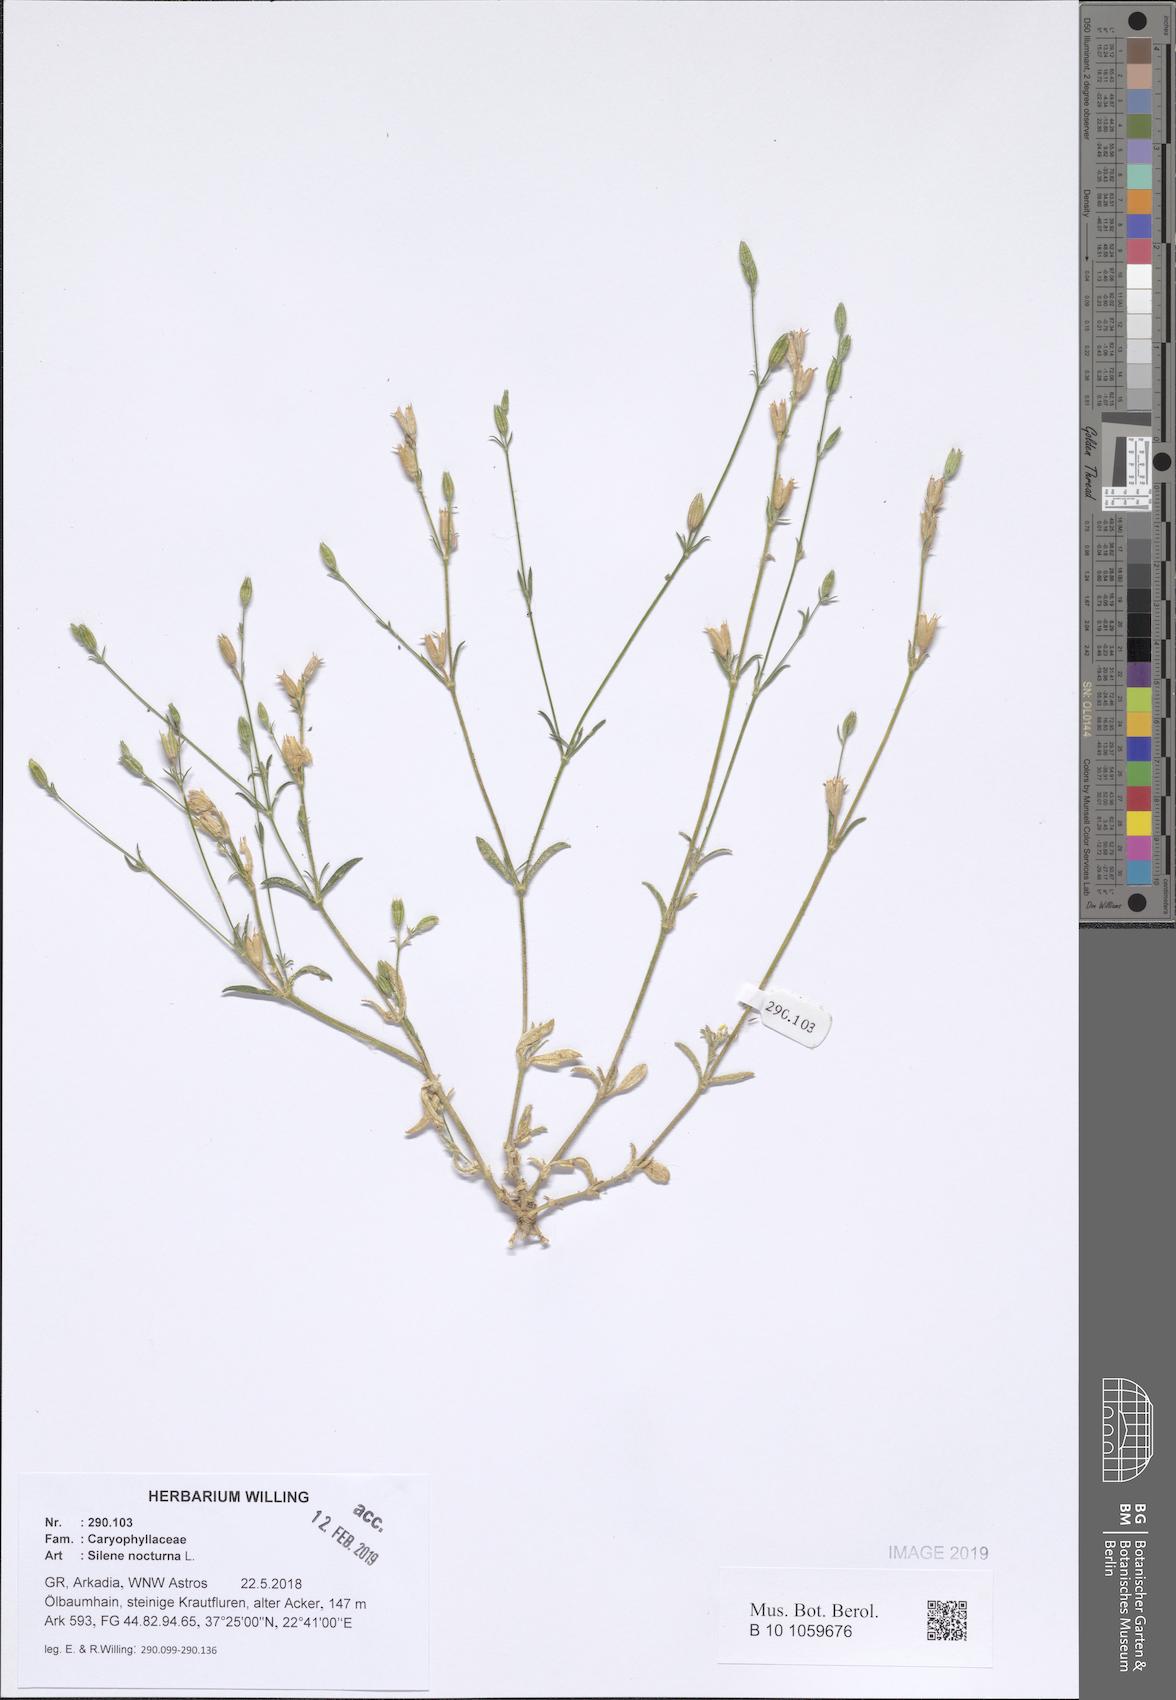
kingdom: Plantae
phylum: Tracheophyta
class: Magnoliopsida
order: Caryophyllales
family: Caryophyllaceae
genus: Silene
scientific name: Silene nocturna
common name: Mediterranean catchfly
